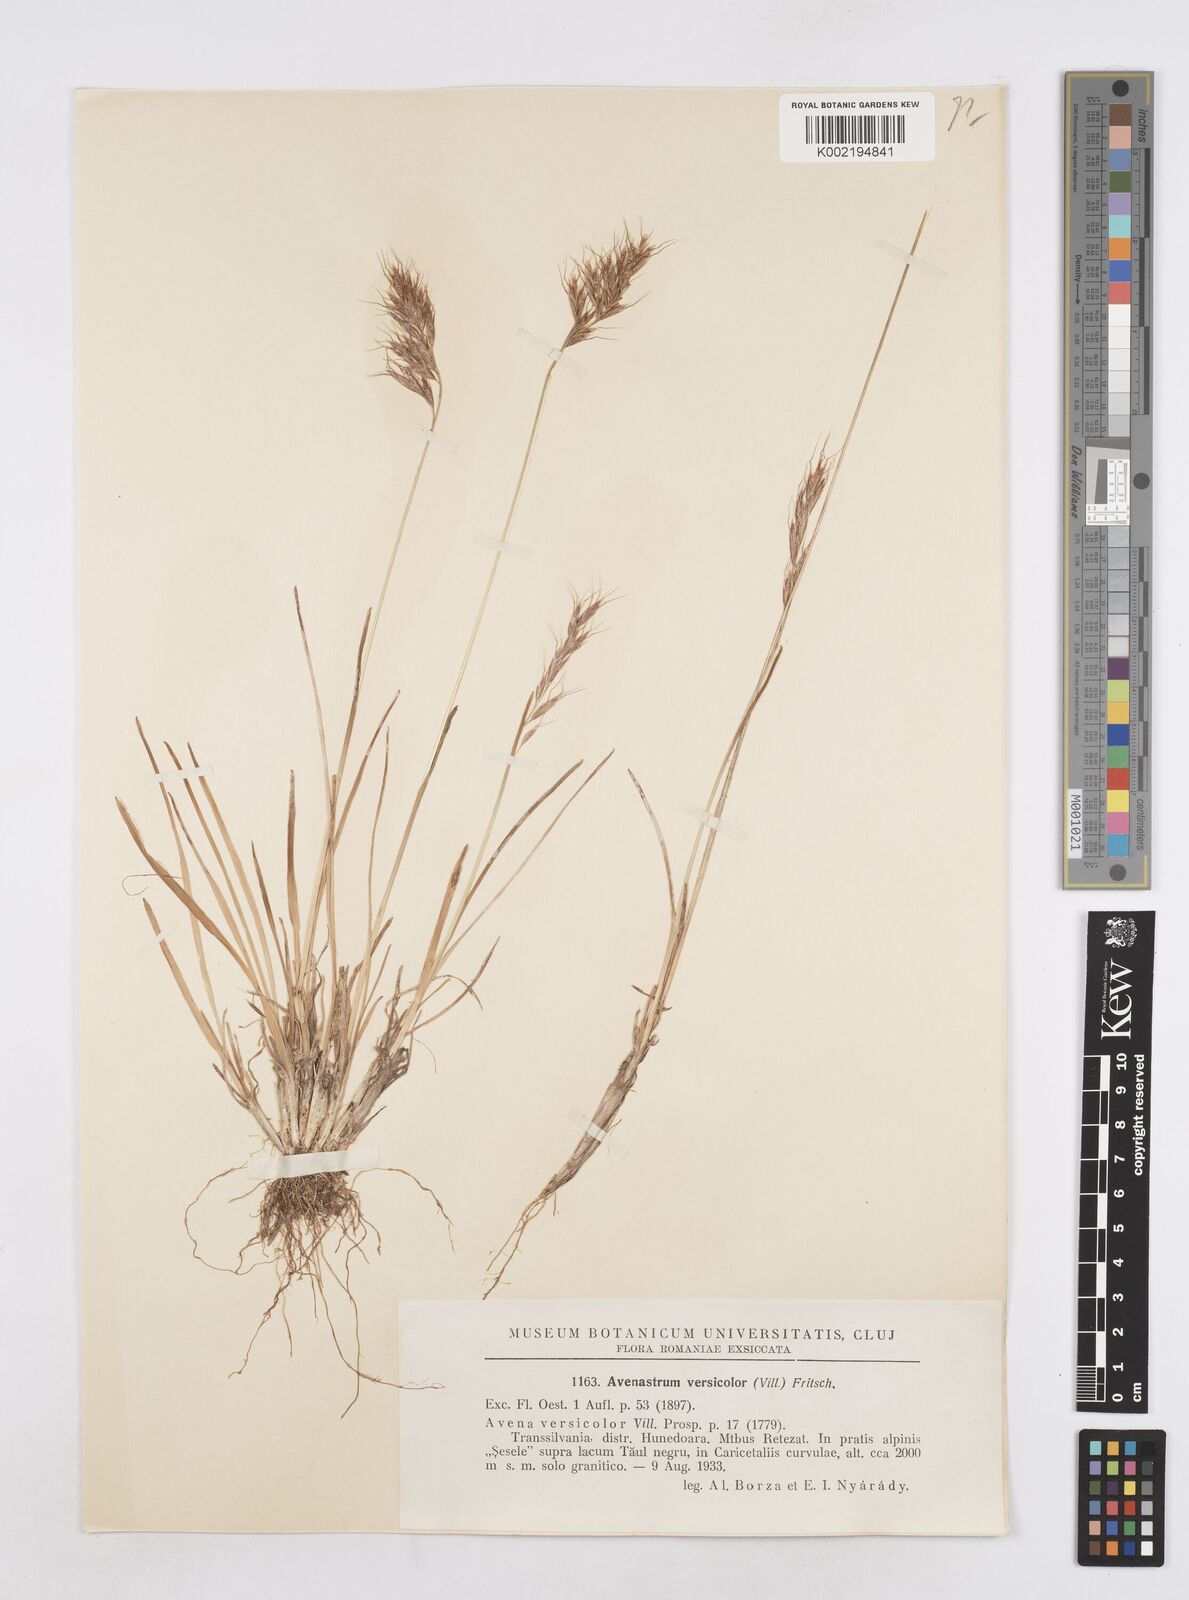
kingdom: Plantae
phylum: Tracheophyta
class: Liliopsida
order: Poales
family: Poaceae
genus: Helictochloa
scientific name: Helictochloa versicolor
